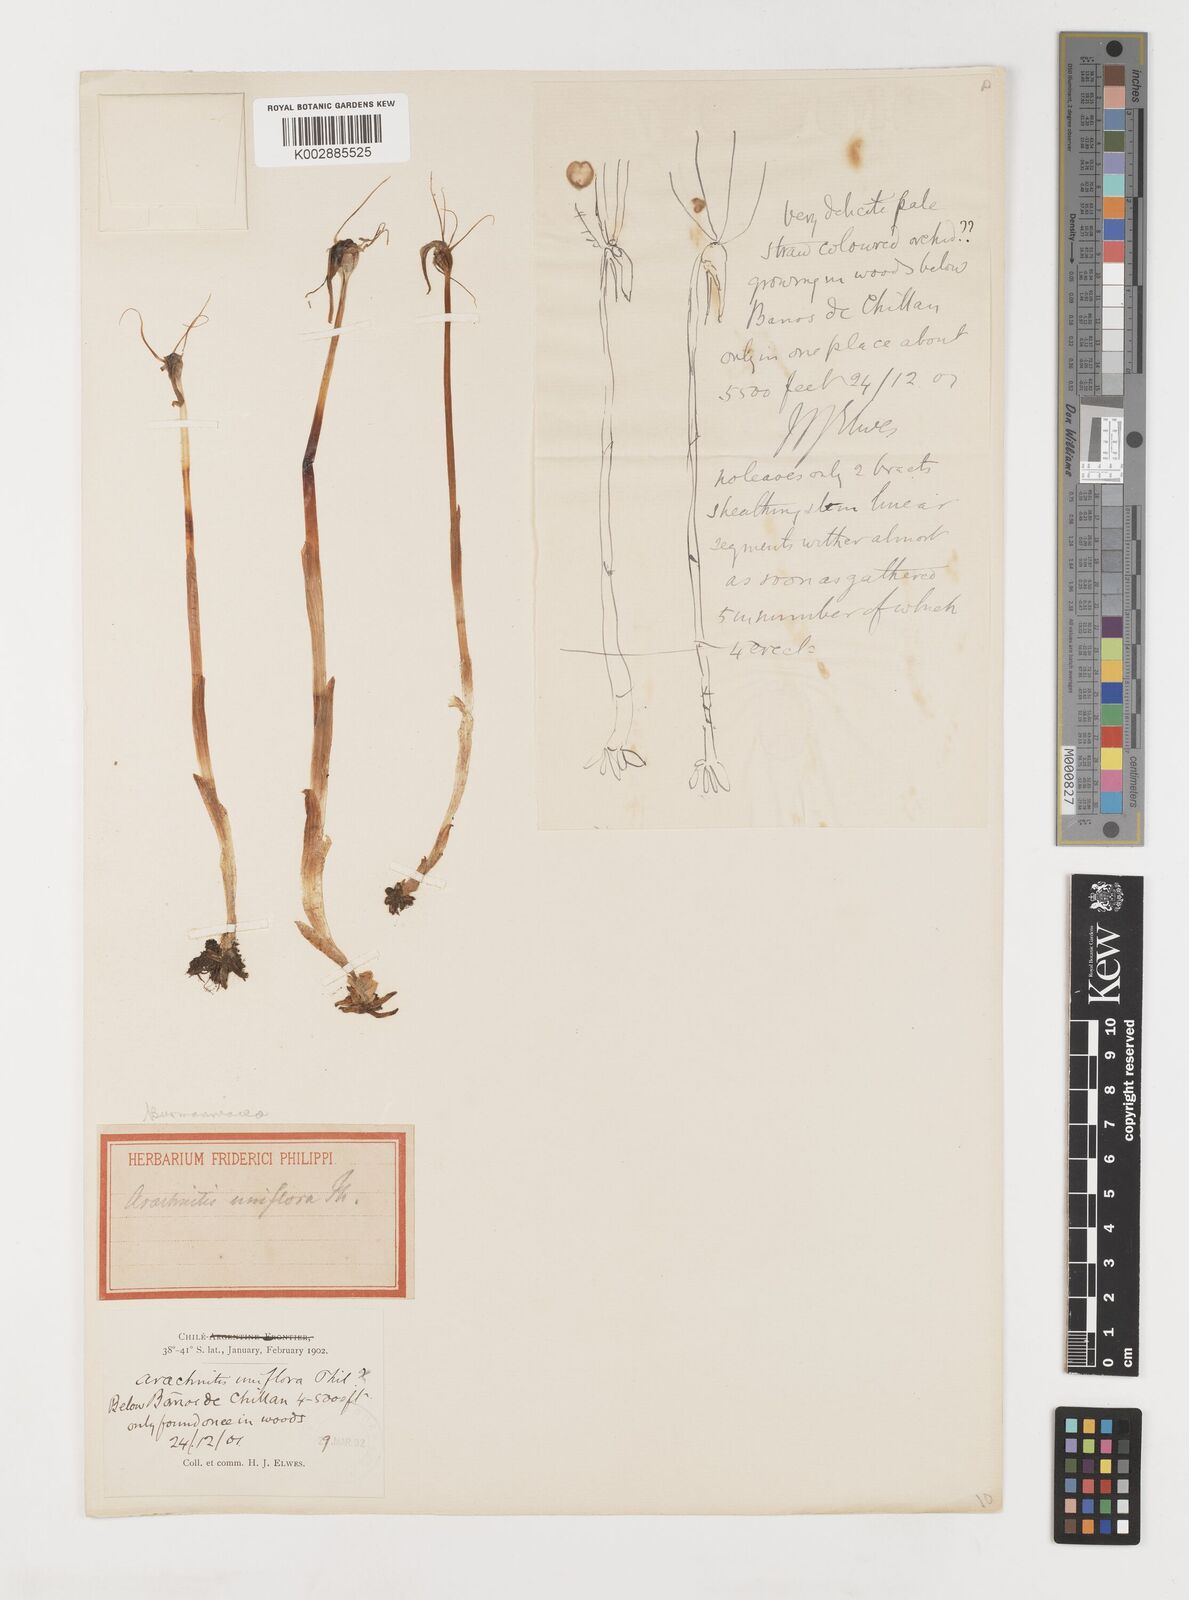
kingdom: Plantae
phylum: Tracheophyta
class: Liliopsida
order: Liliales
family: Corsiaceae
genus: Arachnitis
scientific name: Arachnitis uniflora
